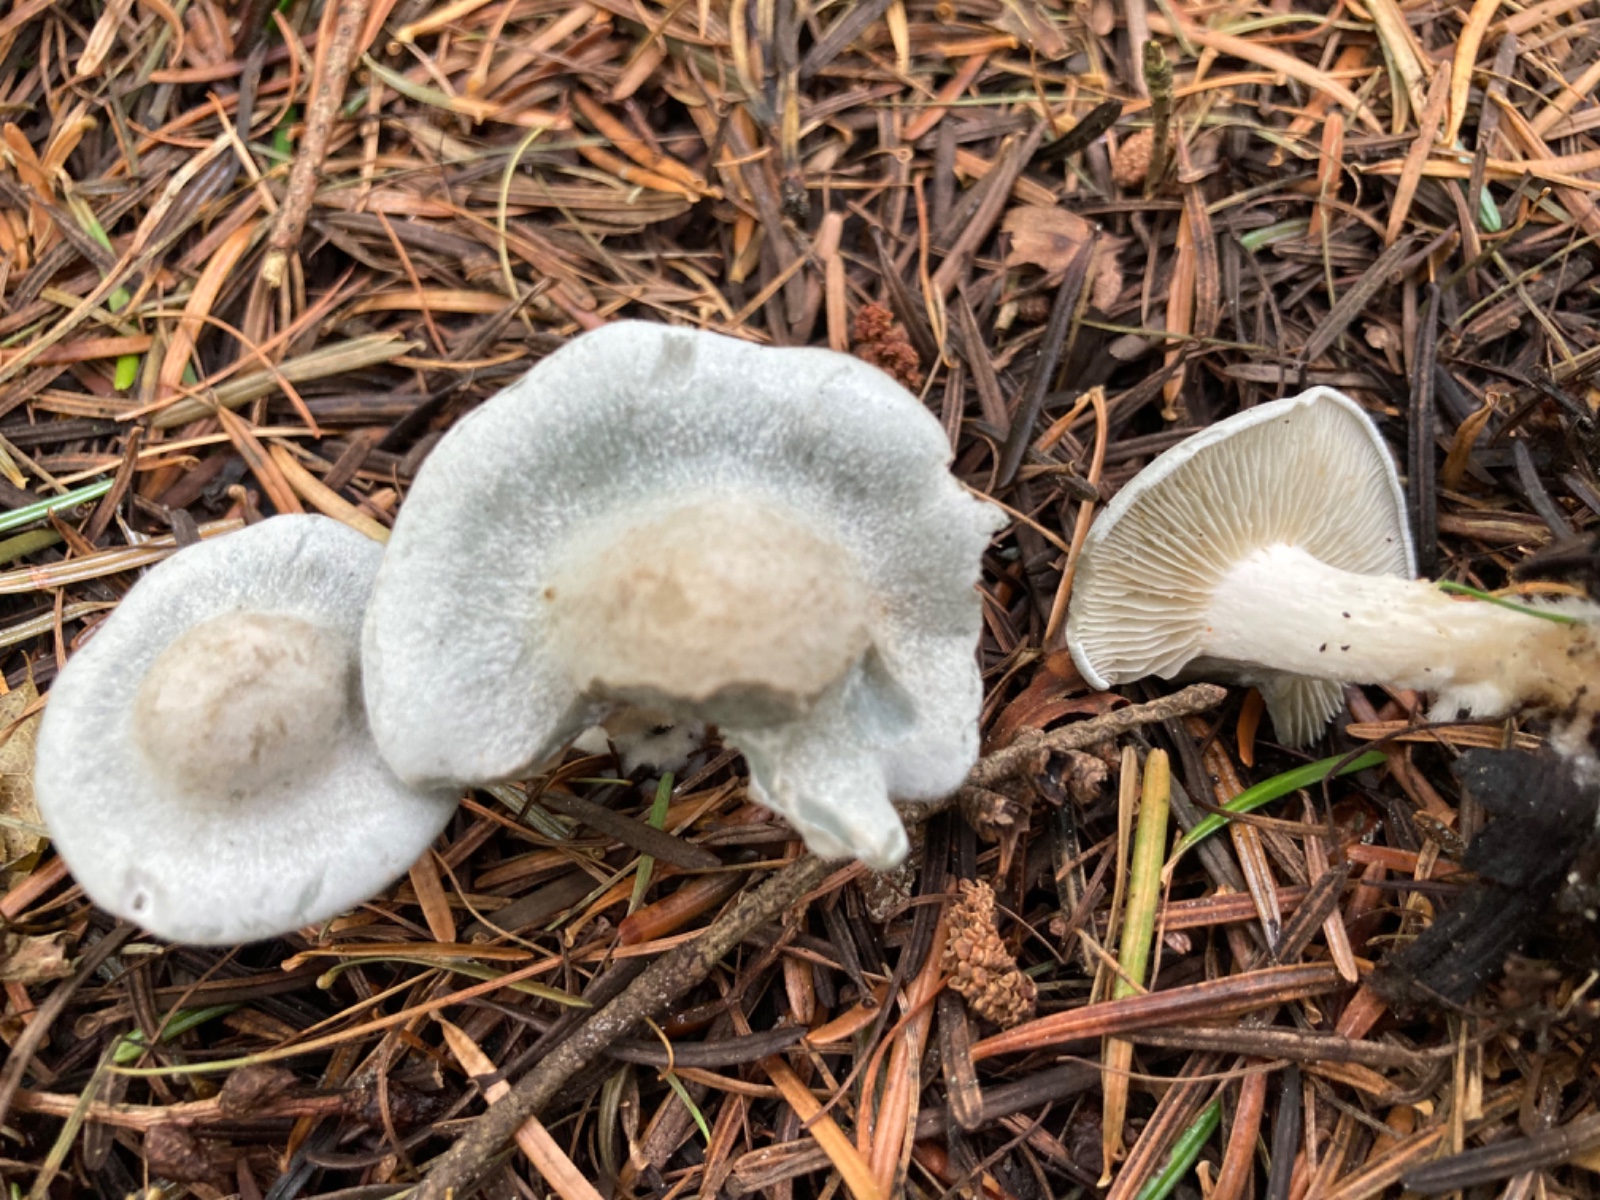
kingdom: Fungi
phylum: Basidiomycota
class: Agaricomycetes
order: Agaricales
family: Tricholomataceae
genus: Clitocybe
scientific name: Clitocybe odora
